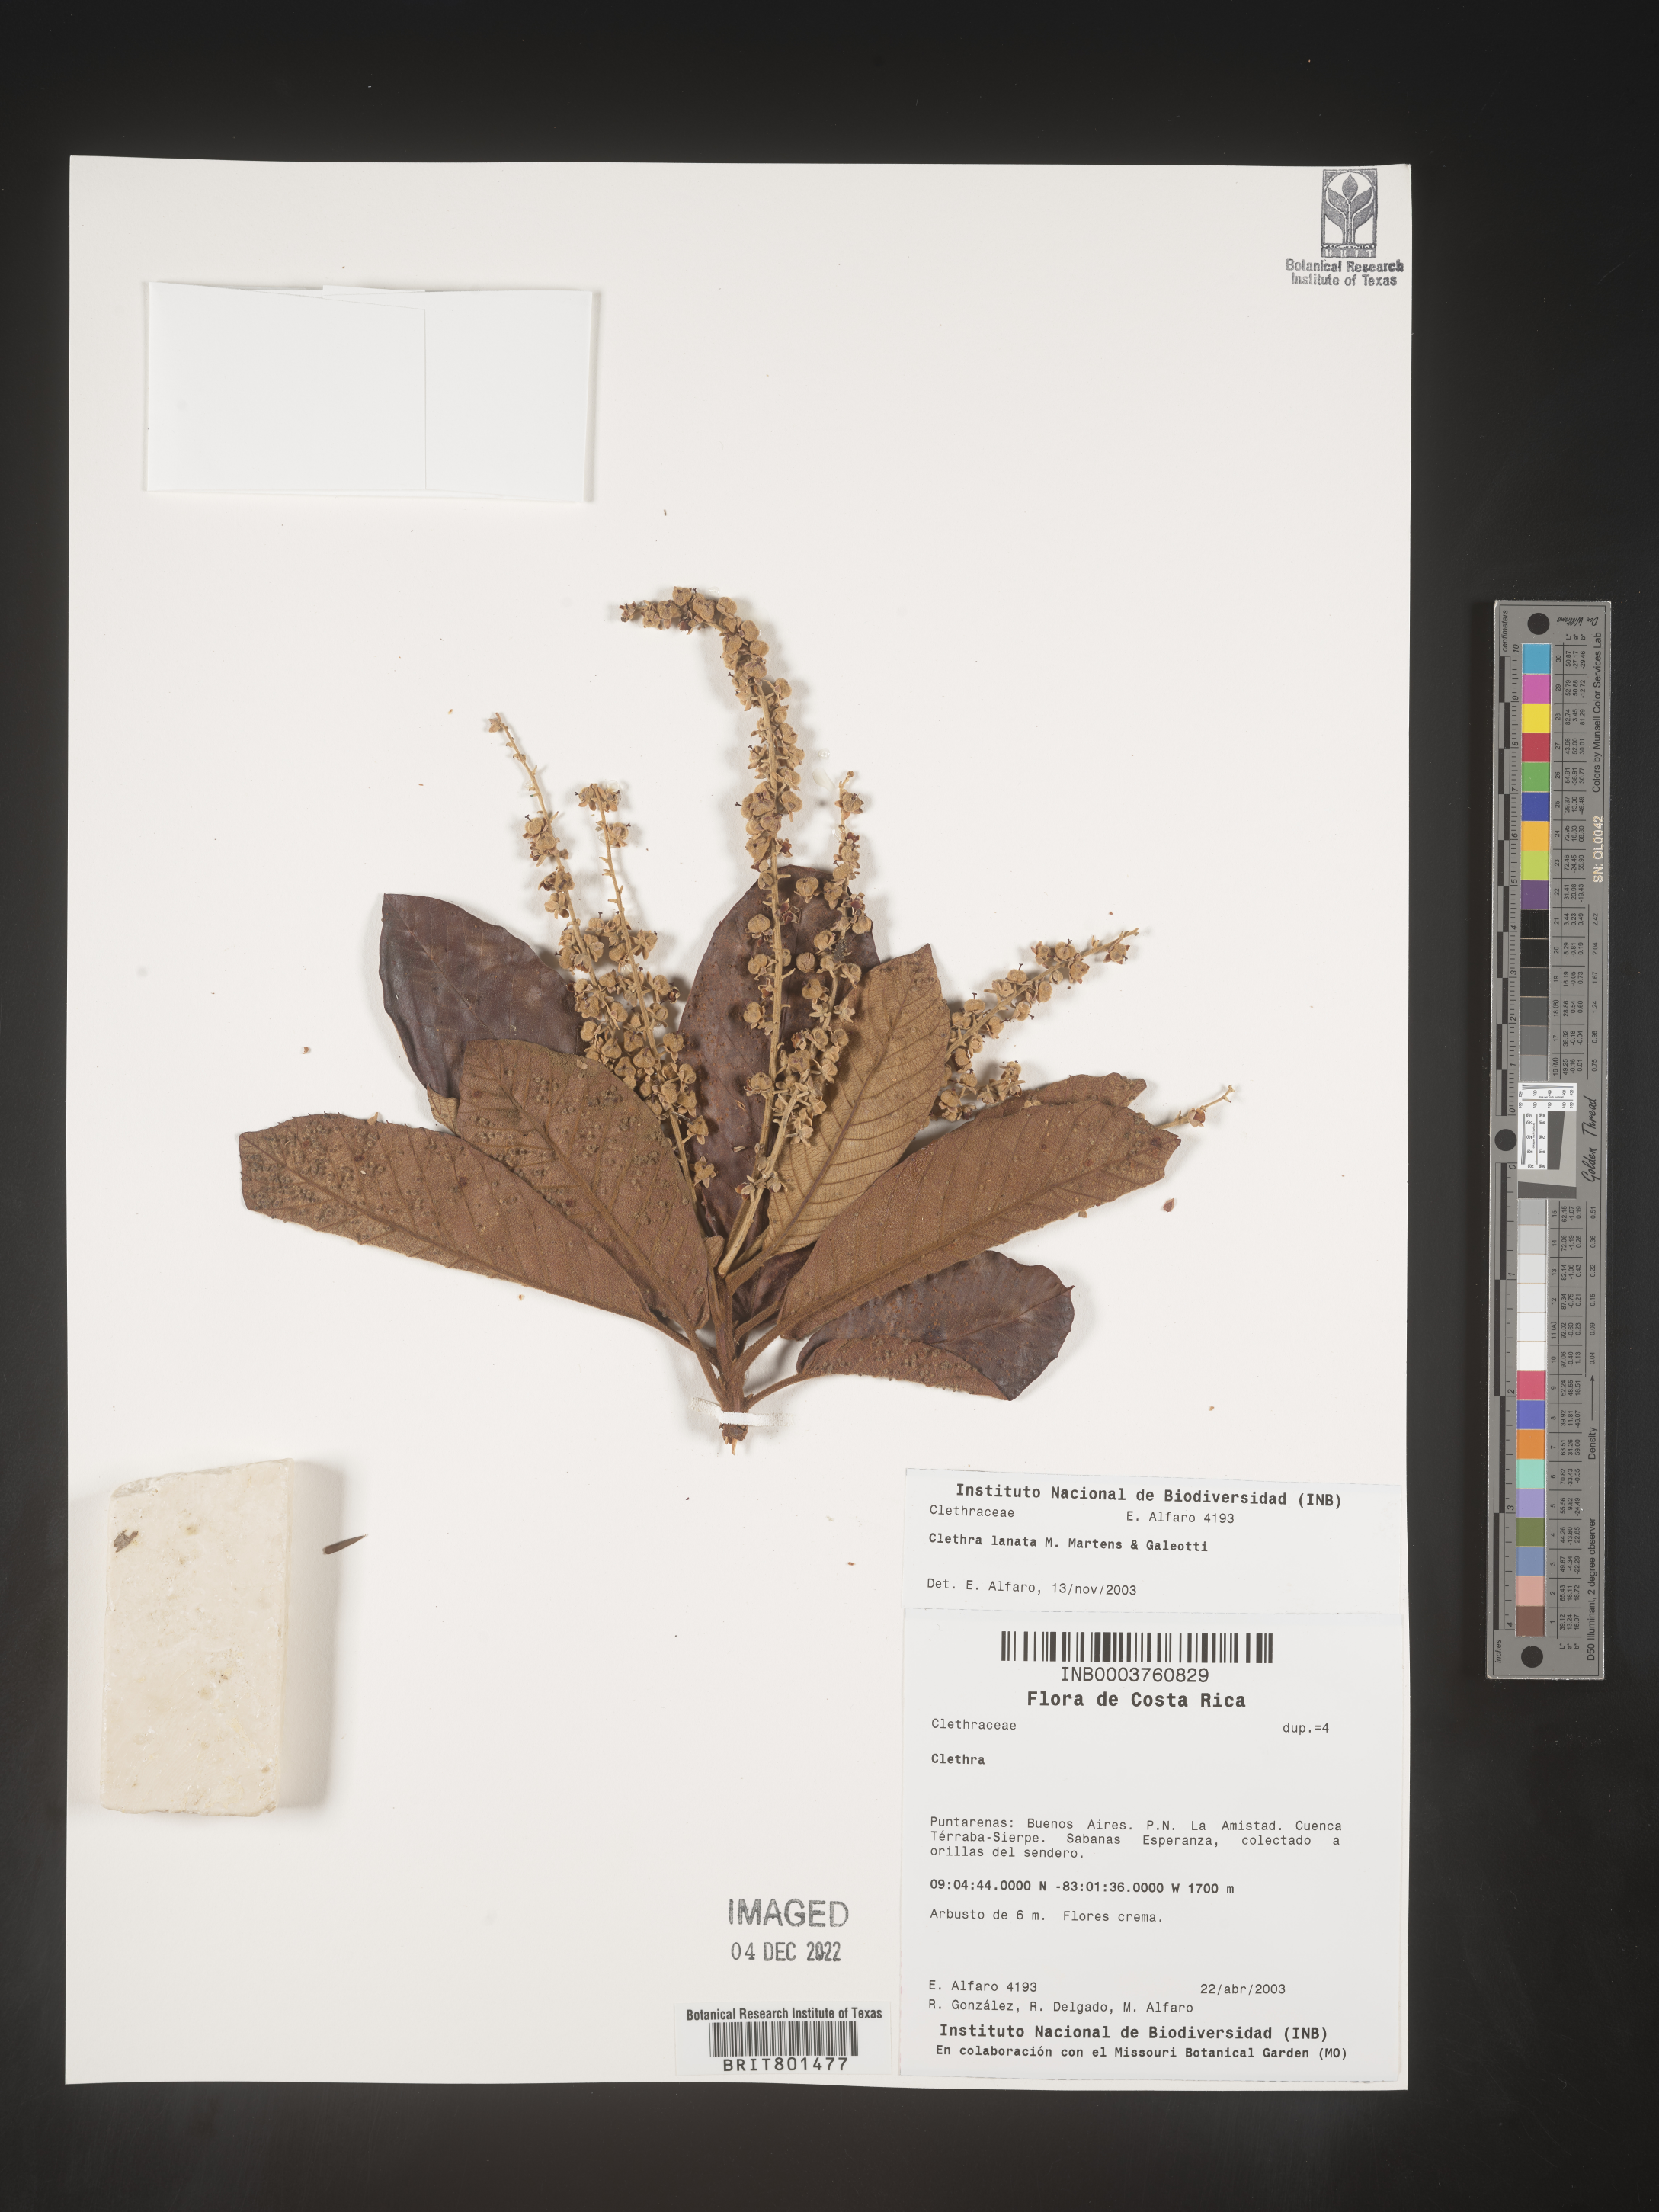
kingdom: Plantae
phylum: Tracheophyta
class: Magnoliopsida
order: Ericales
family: Clethraceae
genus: Clethra
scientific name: Clethra
